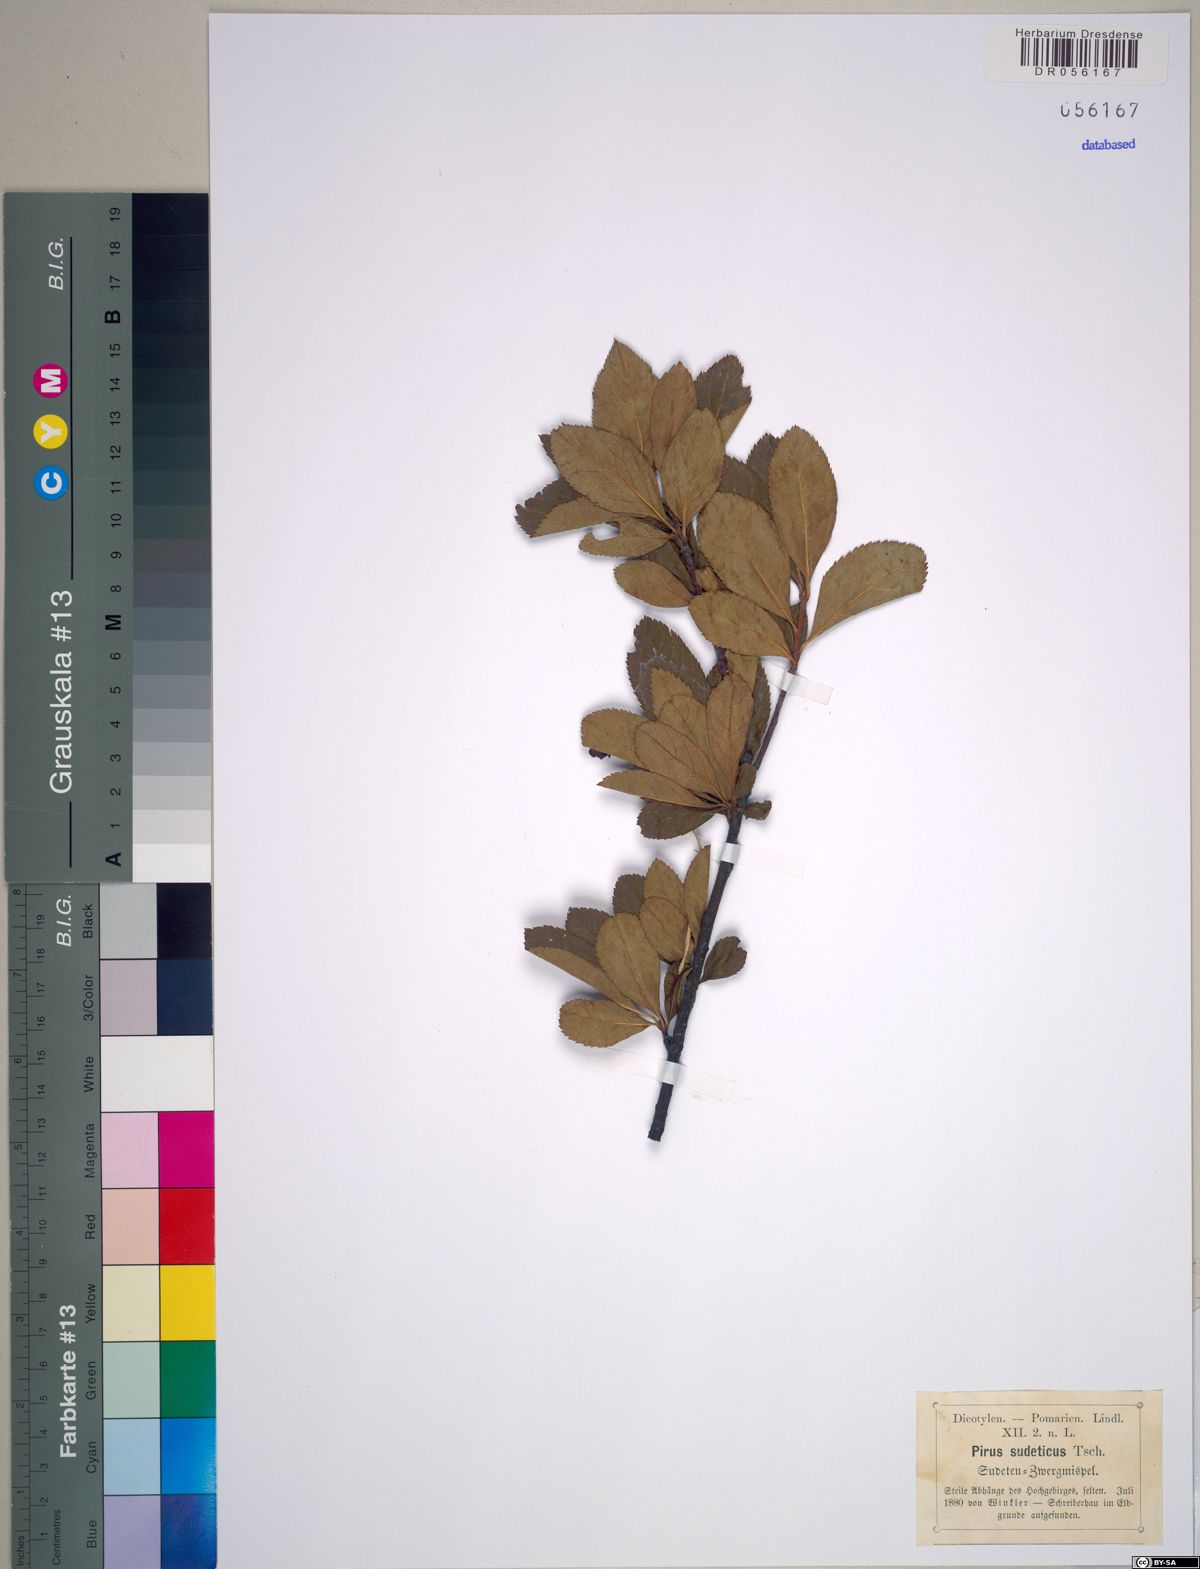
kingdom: Plantae
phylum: Tracheophyta
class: Magnoliopsida
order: Rosales
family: Rosaceae
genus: Majovskya
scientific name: Majovskya sudetica
